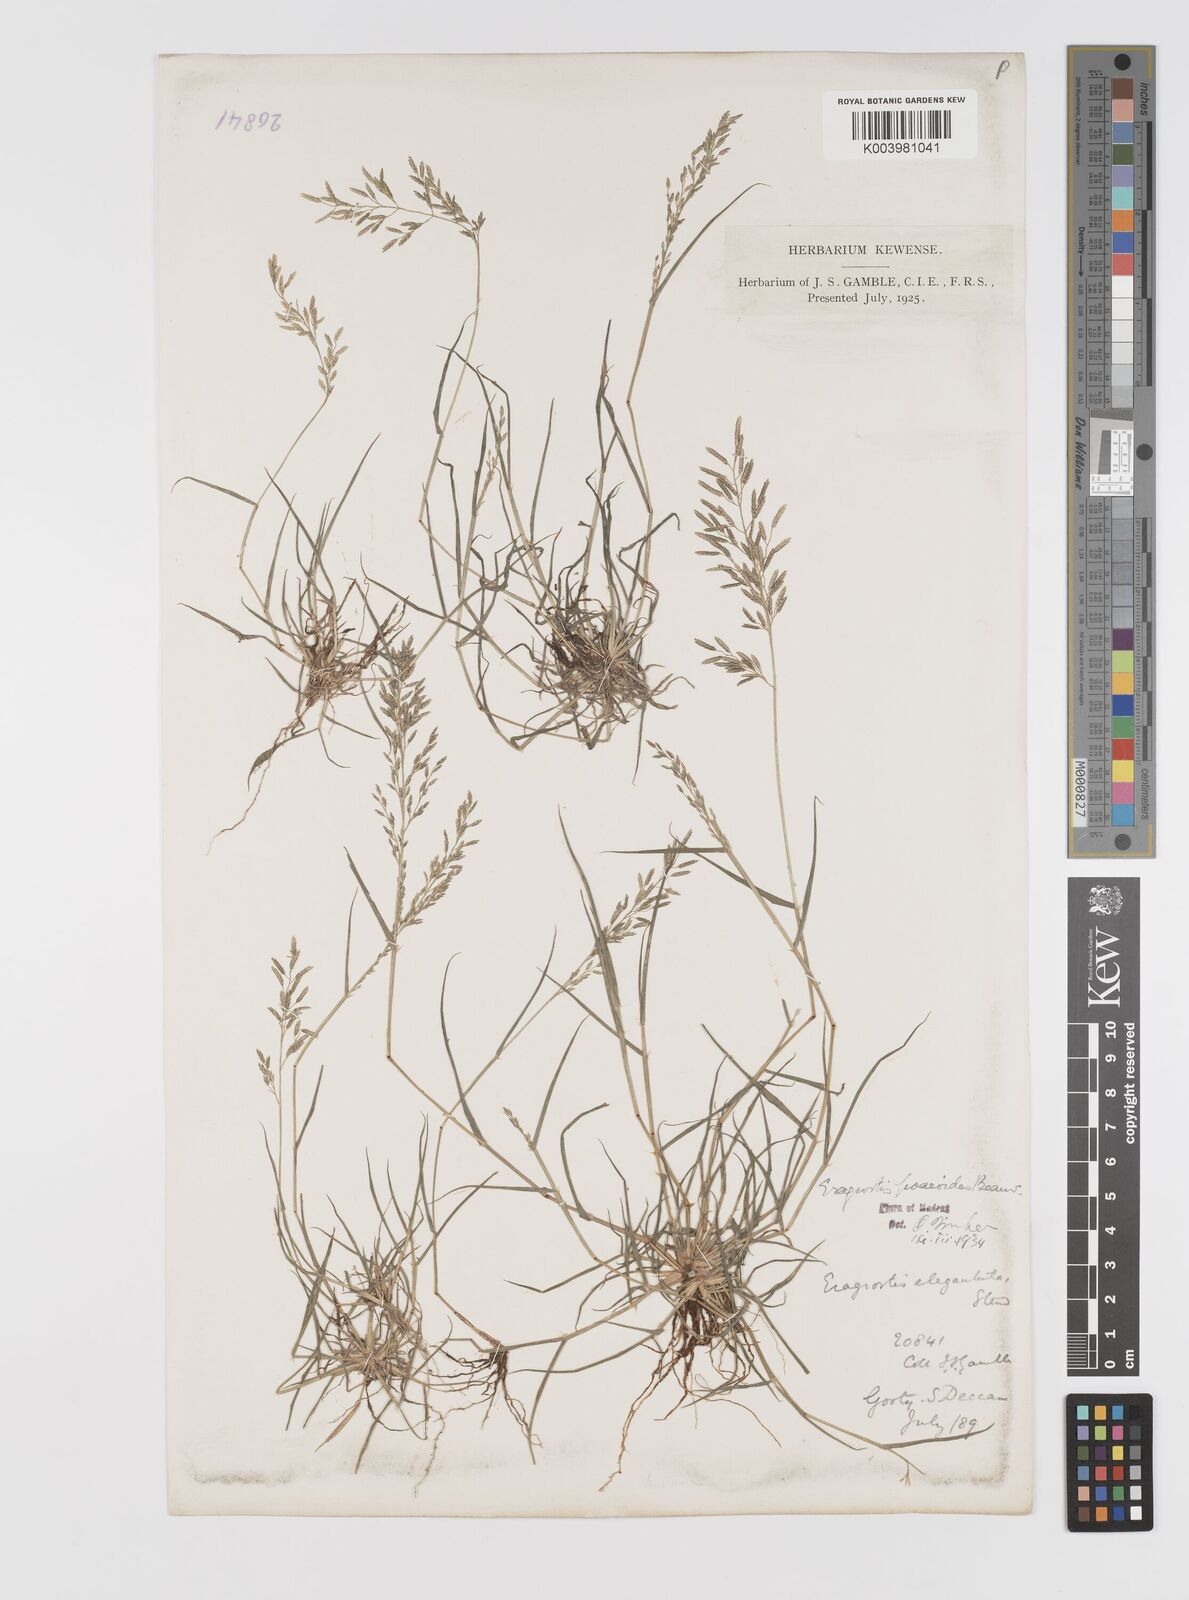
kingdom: Plantae
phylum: Tracheophyta
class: Liliopsida
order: Poales
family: Poaceae
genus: Eragrostis
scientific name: Eragrostis minor
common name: Small love-grass
